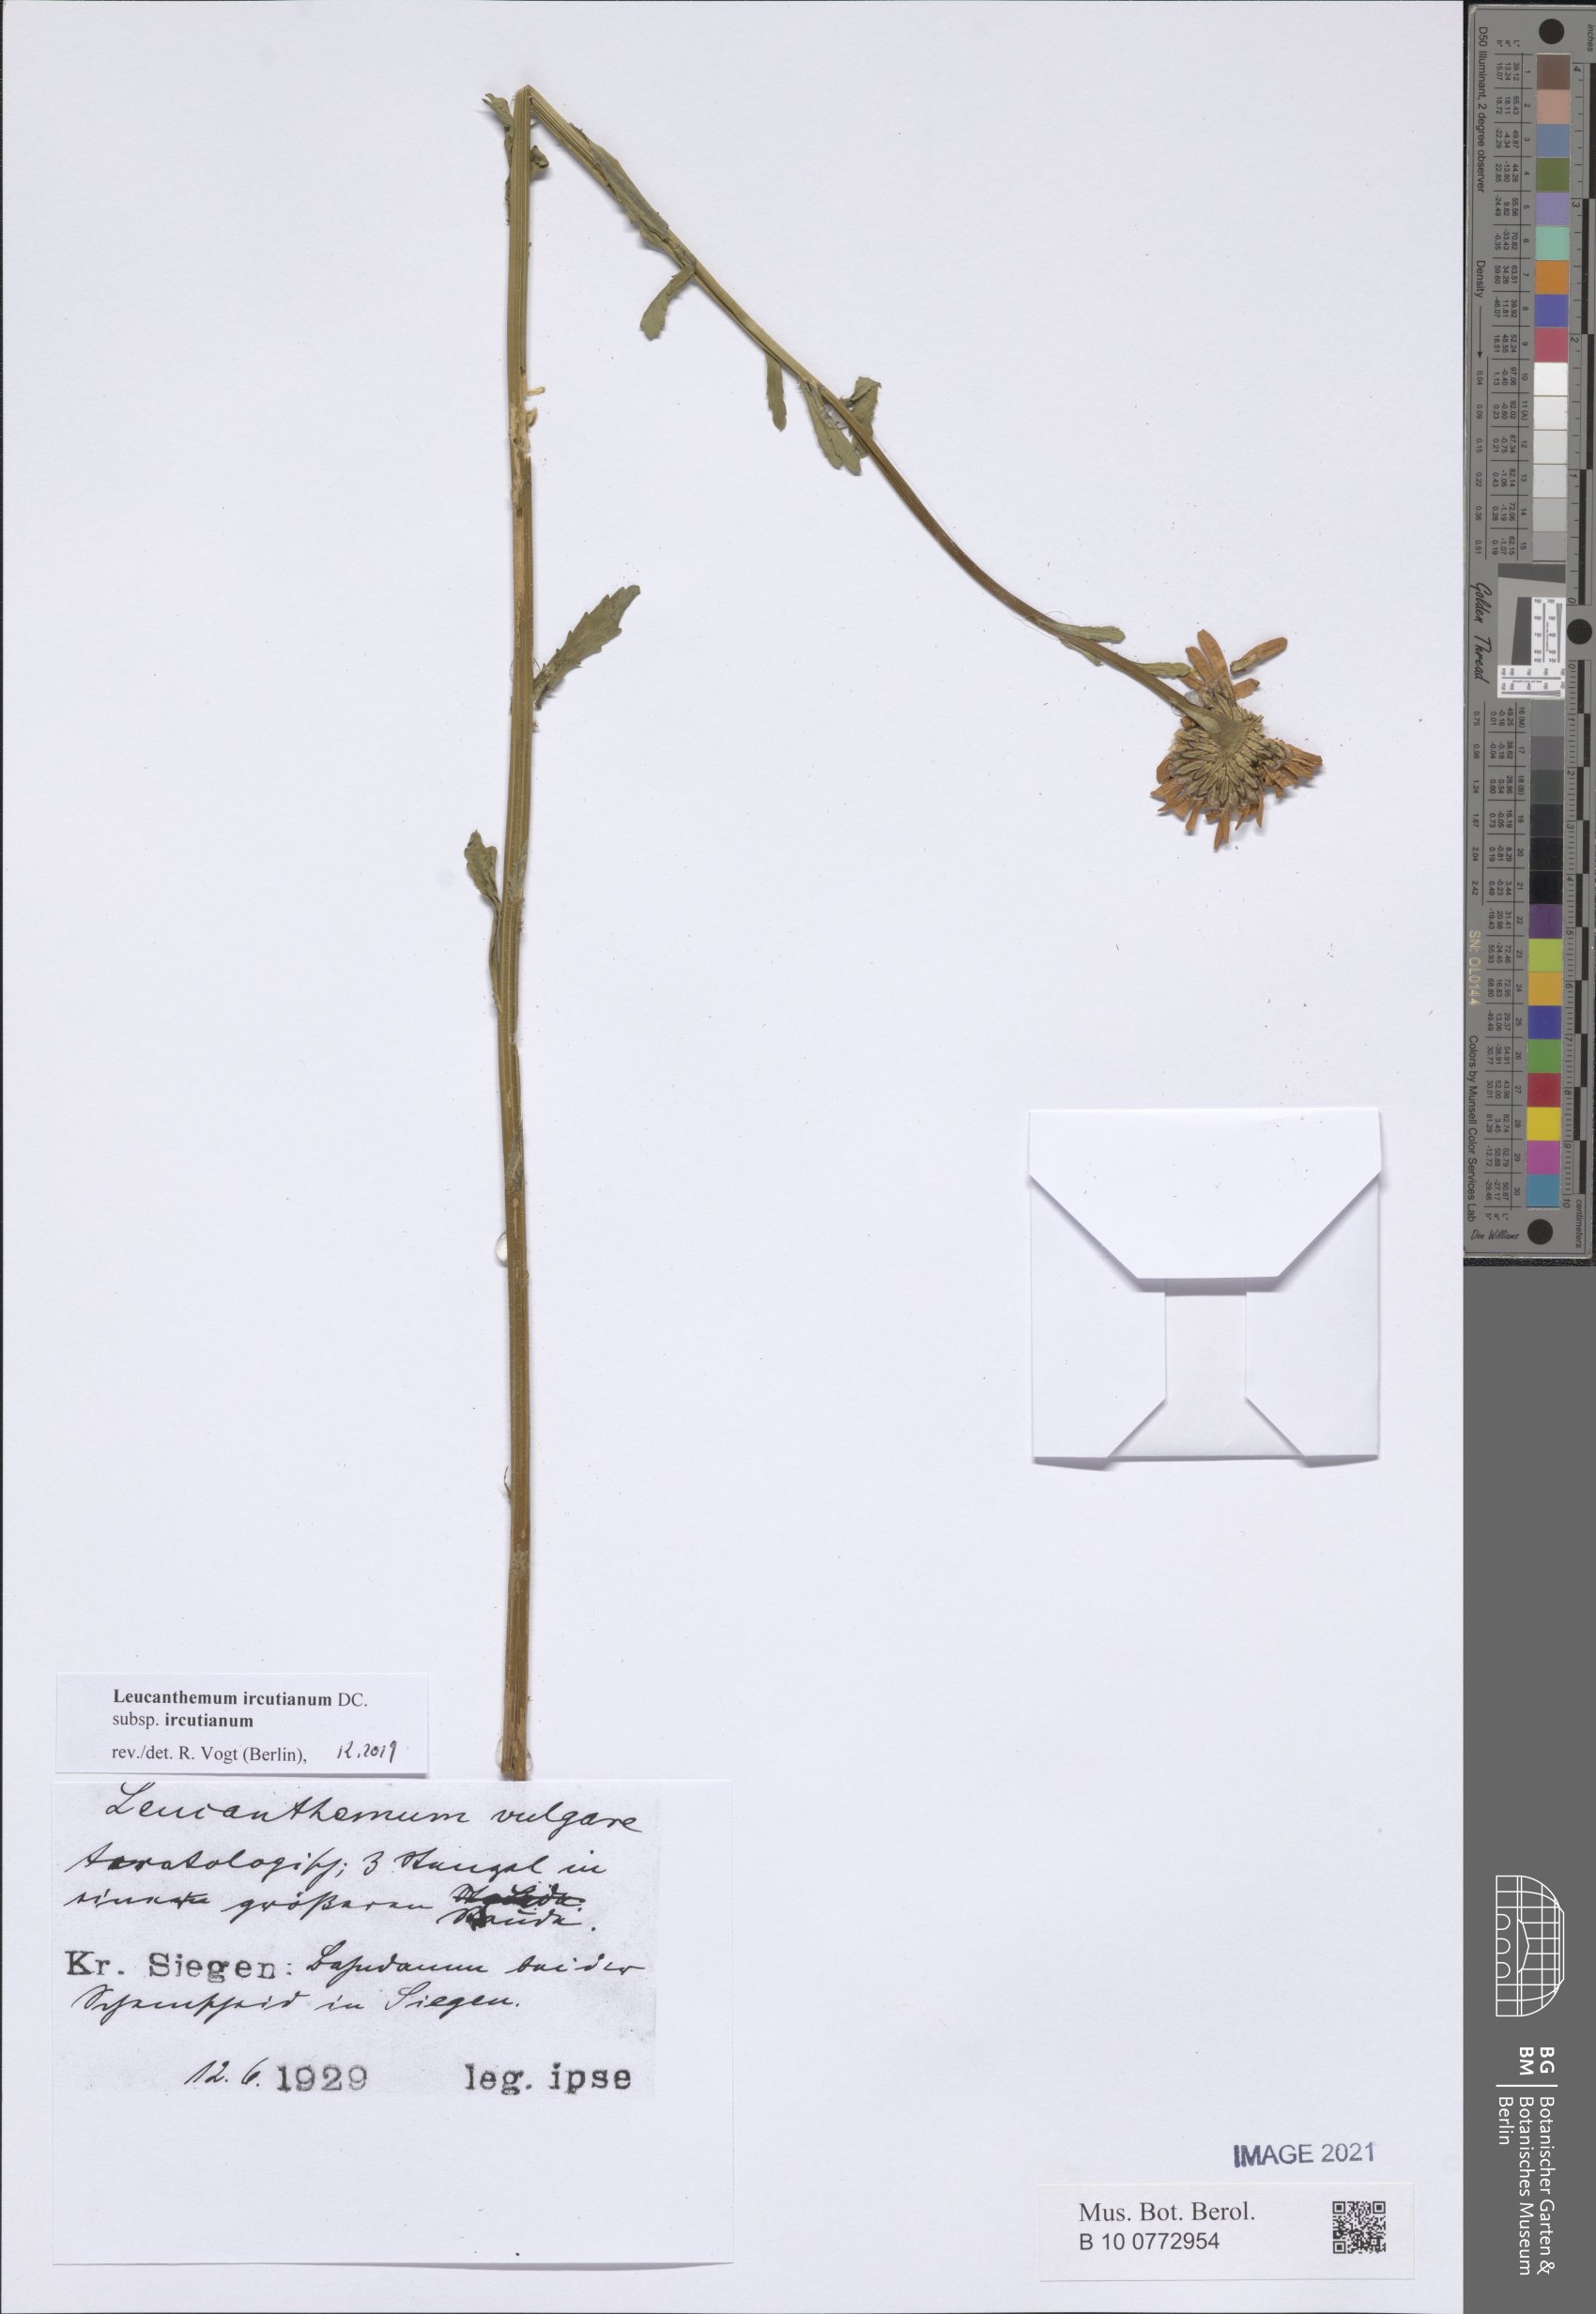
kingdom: Plantae
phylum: Tracheophyta
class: Magnoliopsida
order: Asterales
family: Asteraceae
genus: Leucanthemum
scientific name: Leucanthemum ircutianum
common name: Daisy
